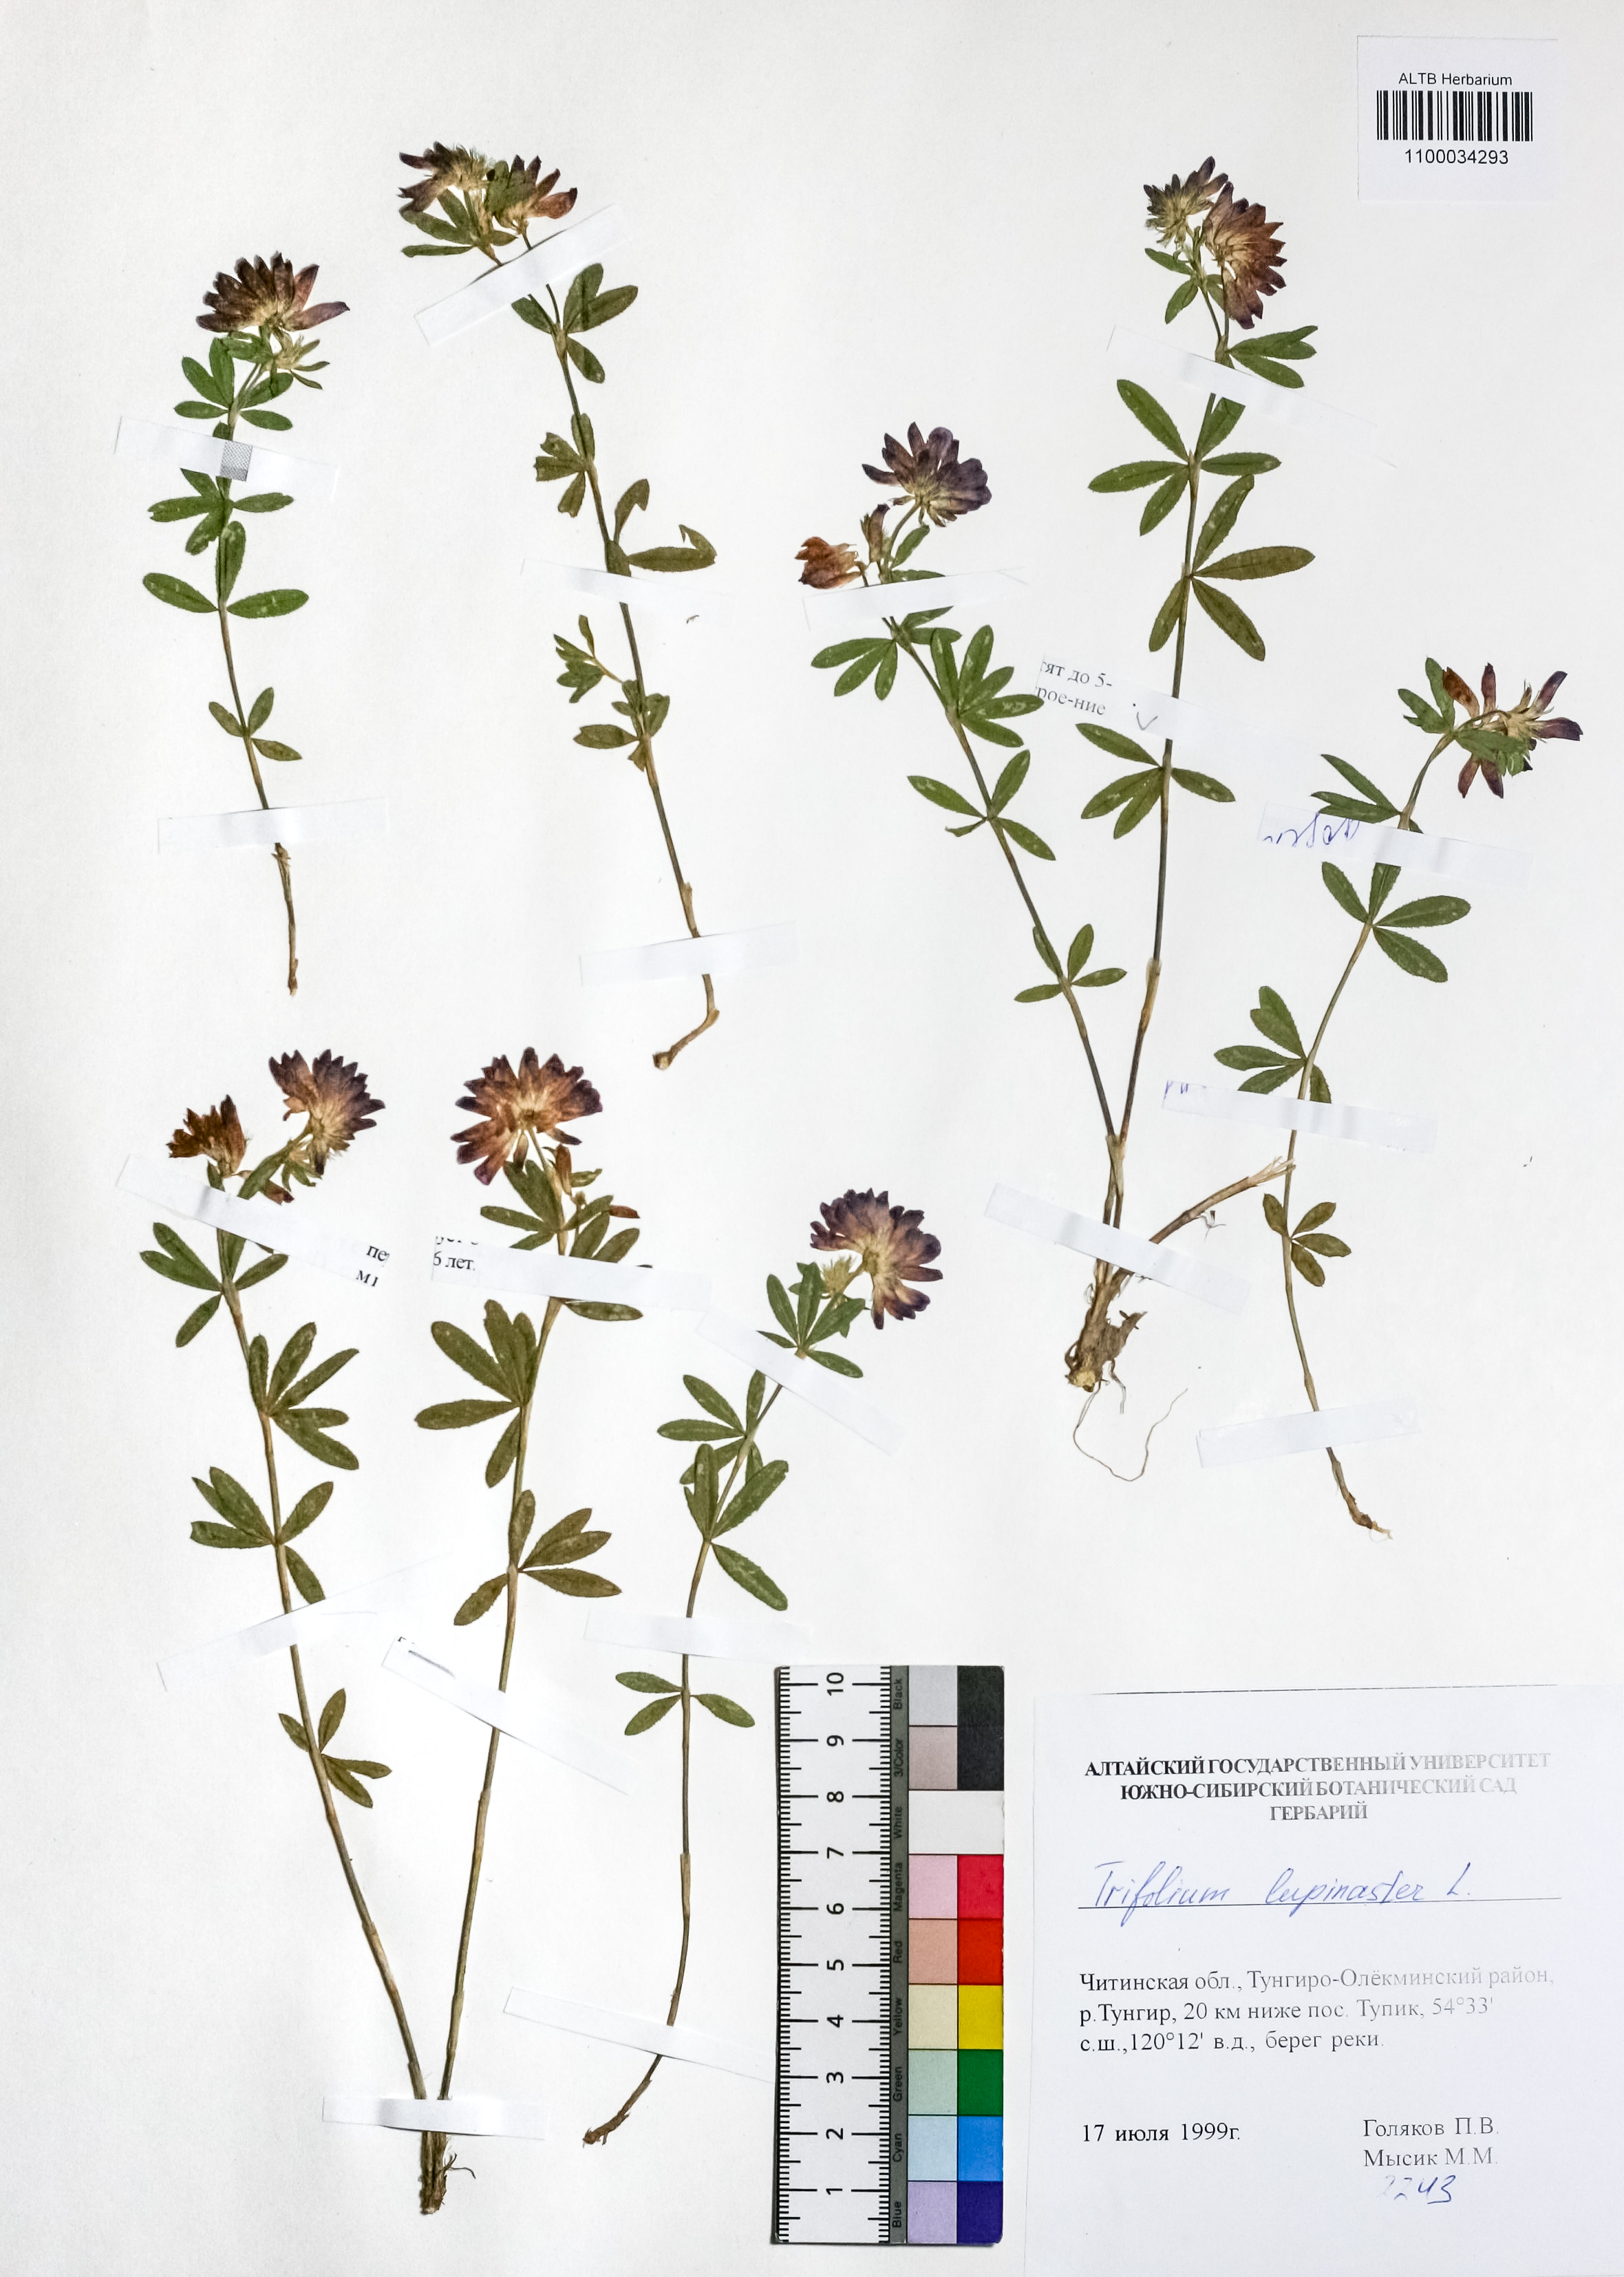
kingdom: Plantae
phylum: Tracheophyta
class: Magnoliopsida
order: Fabales
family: Fabaceae
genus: Trifolium
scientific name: Trifolium lupinaster
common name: Lupine clover
